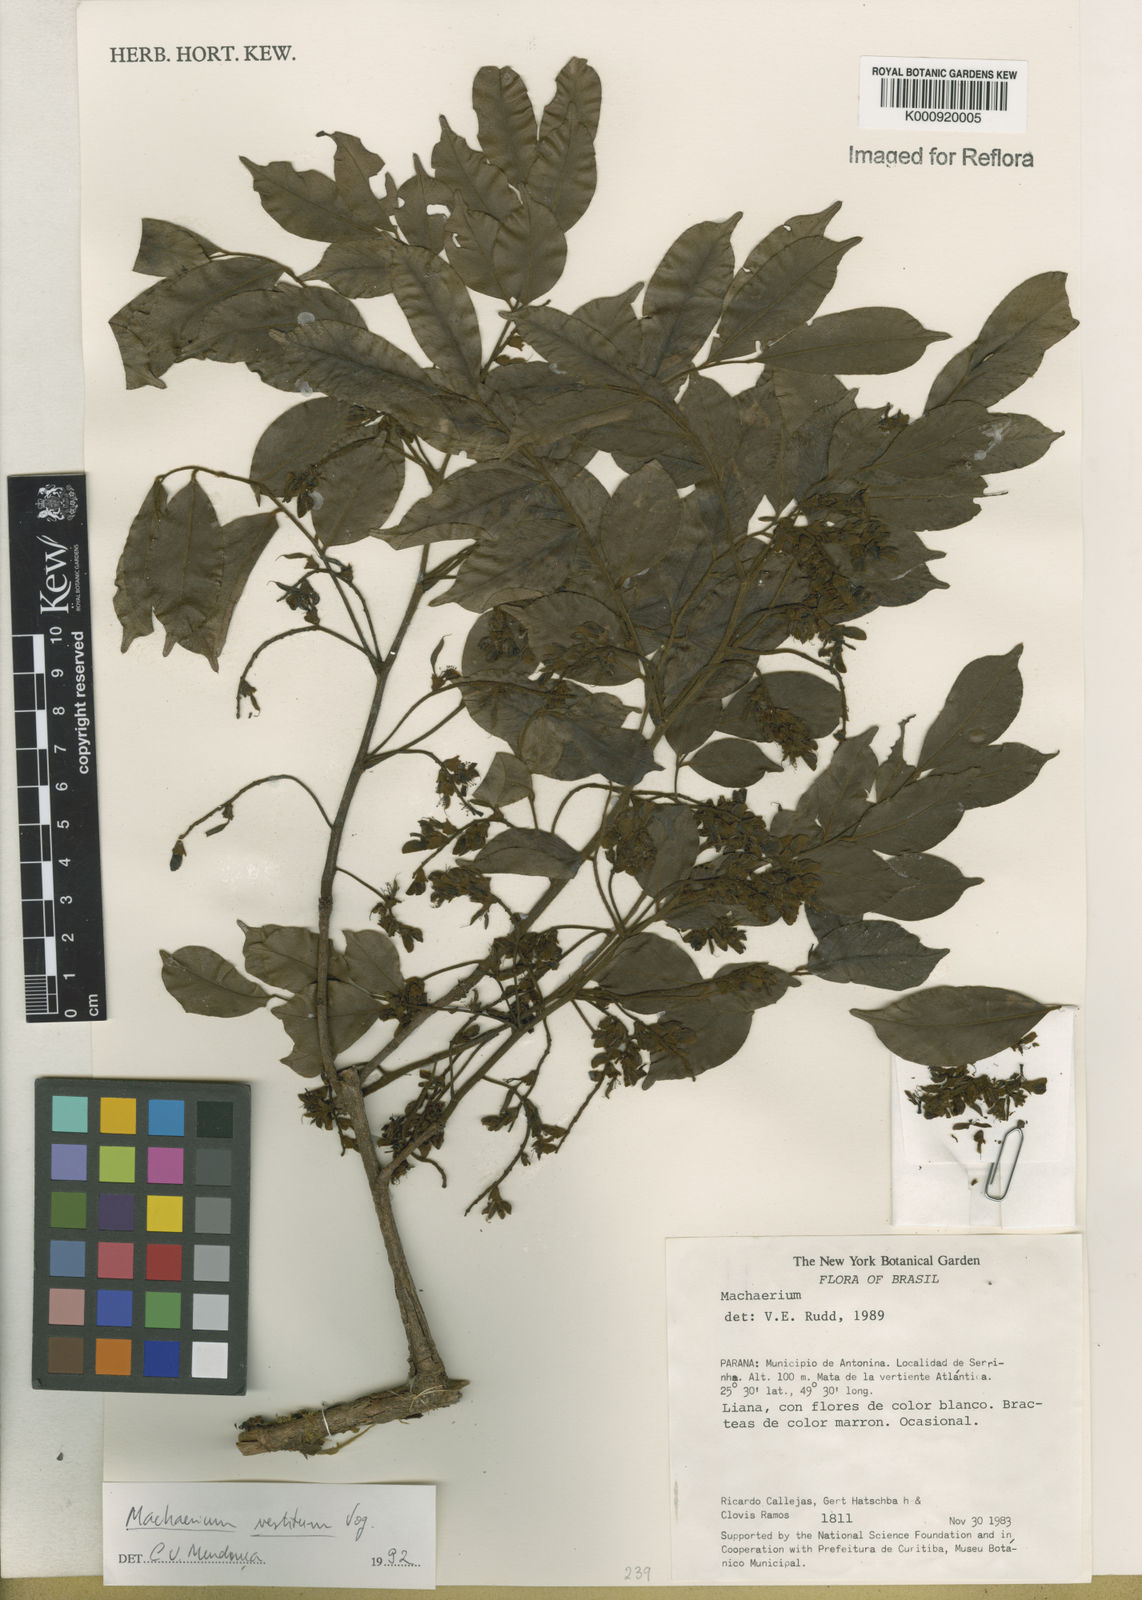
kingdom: Plantae
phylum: Tracheophyta
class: Magnoliopsida
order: Fabales
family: Fabaceae
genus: Machaerium
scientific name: Machaerium brasiliense
